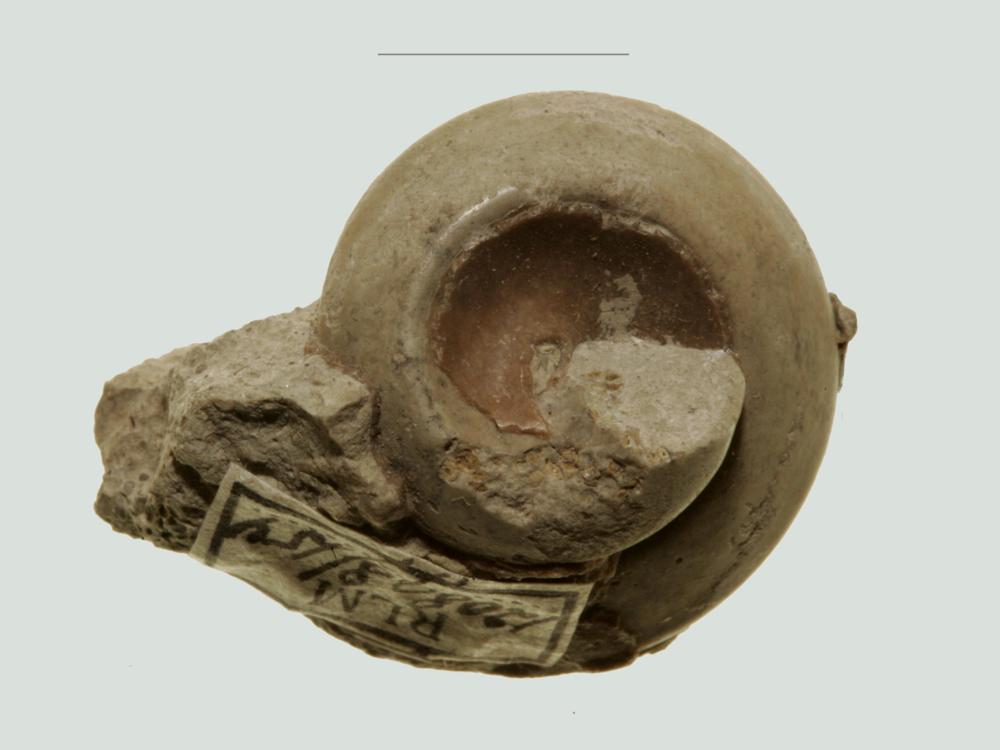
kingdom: Animalia
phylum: Mollusca
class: Gastropoda
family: Lophospiridae
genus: Lophospira
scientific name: Lophospira Worthenia mickwitzi
